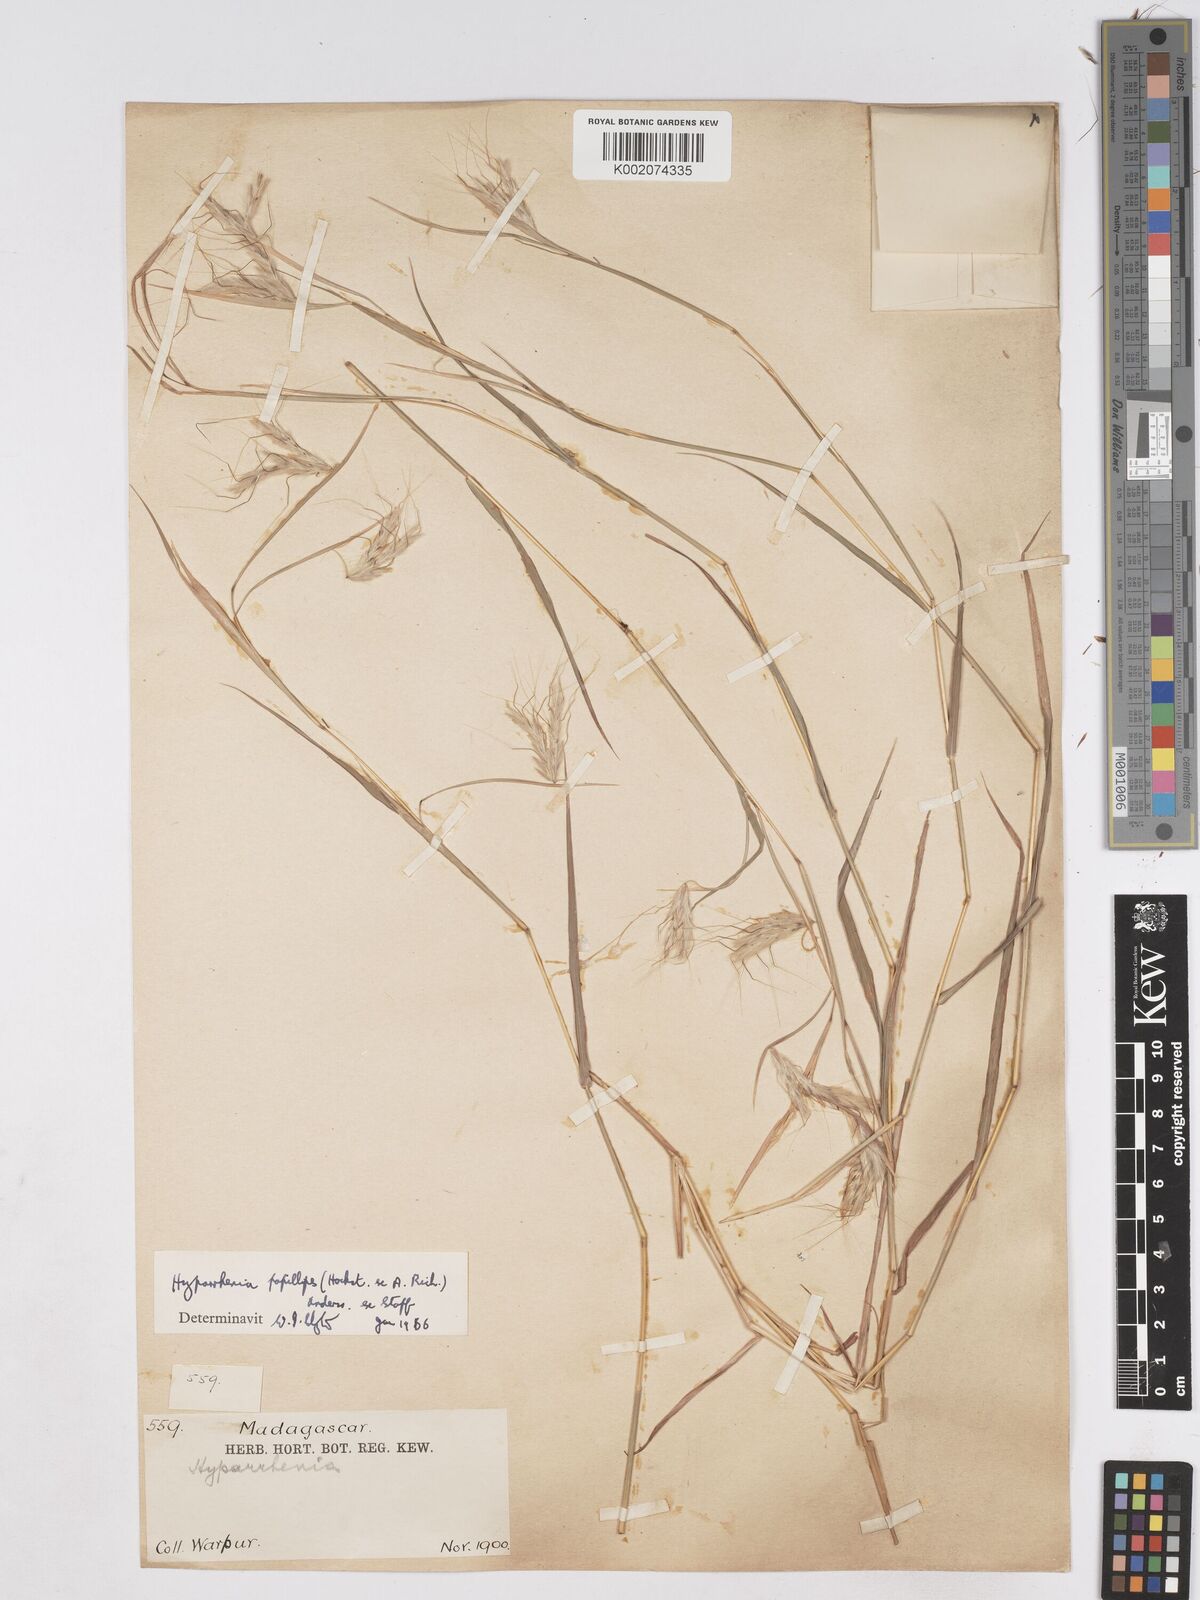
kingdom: Plantae
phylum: Tracheophyta
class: Liliopsida
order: Poales
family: Poaceae
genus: Hyparrhenia
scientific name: Hyparrhenia papillipes
